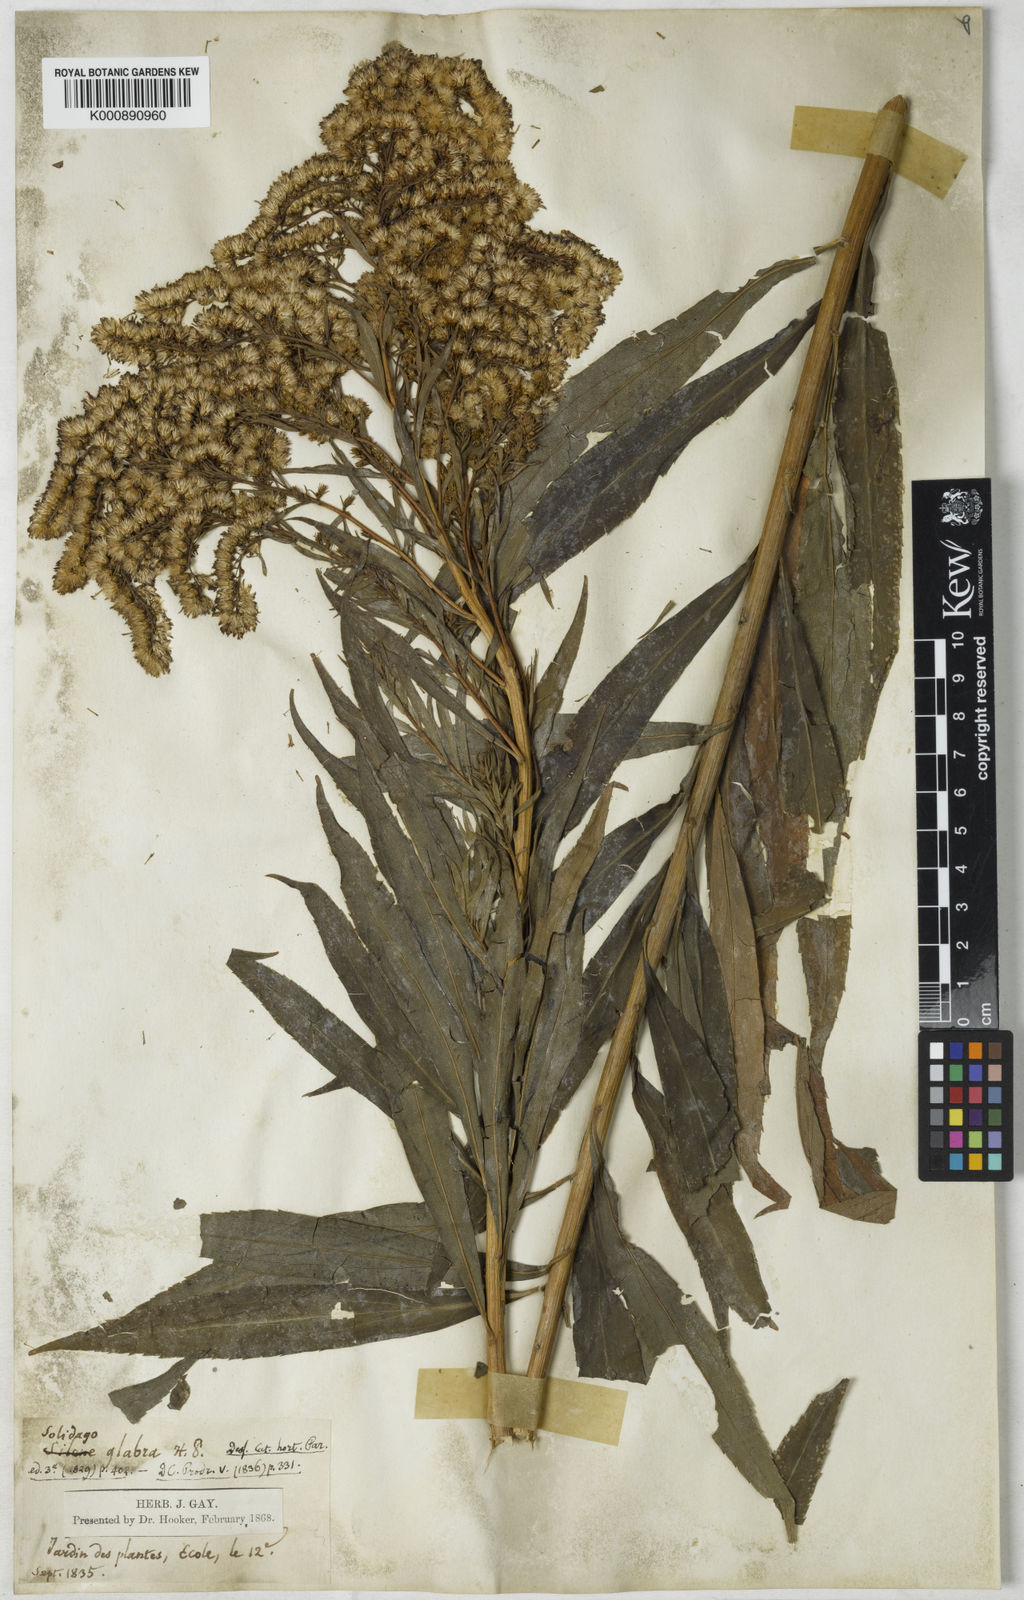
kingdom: Plantae
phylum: Tracheophyta
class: Magnoliopsida
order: Asterales
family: Asteraceae
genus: Solidago
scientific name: Solidago gigantea
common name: Giant goldenrod
